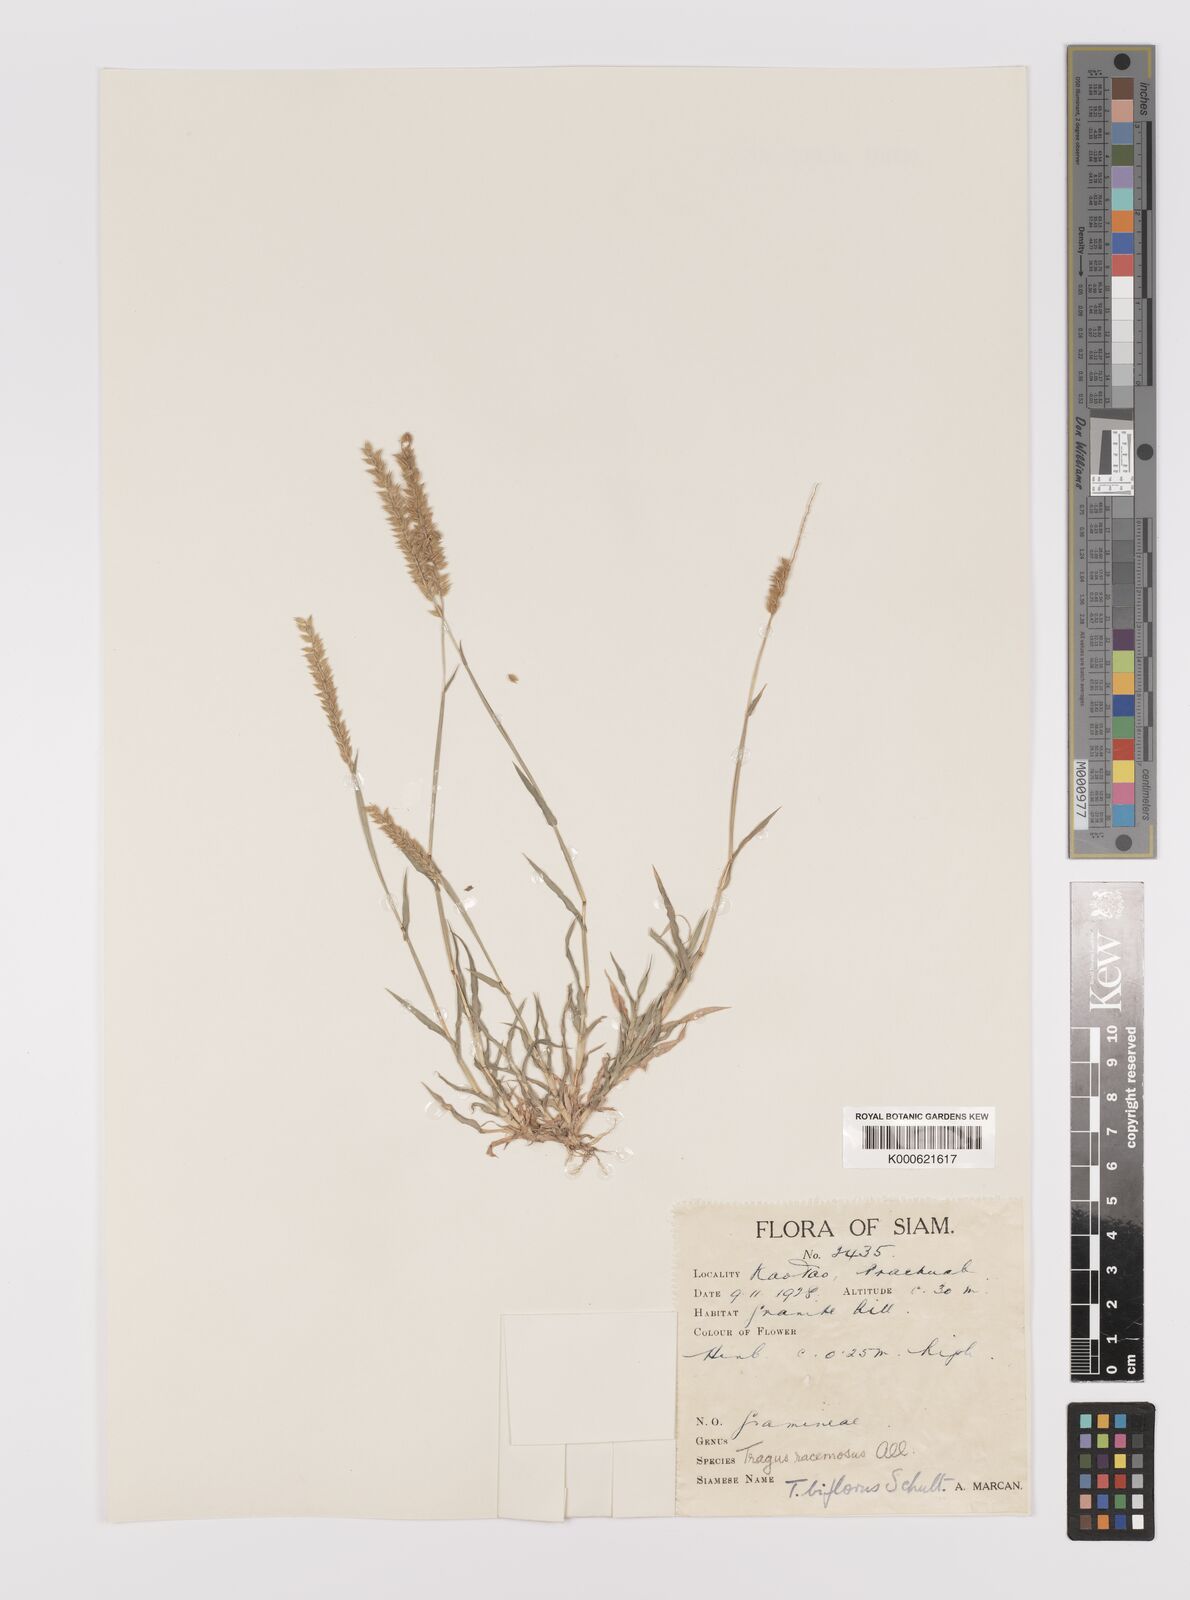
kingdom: Plantae
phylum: Tracheophyta
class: Liliopsida
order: Poales
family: Poaceae
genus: Tragus
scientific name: Tragus mongolorum
